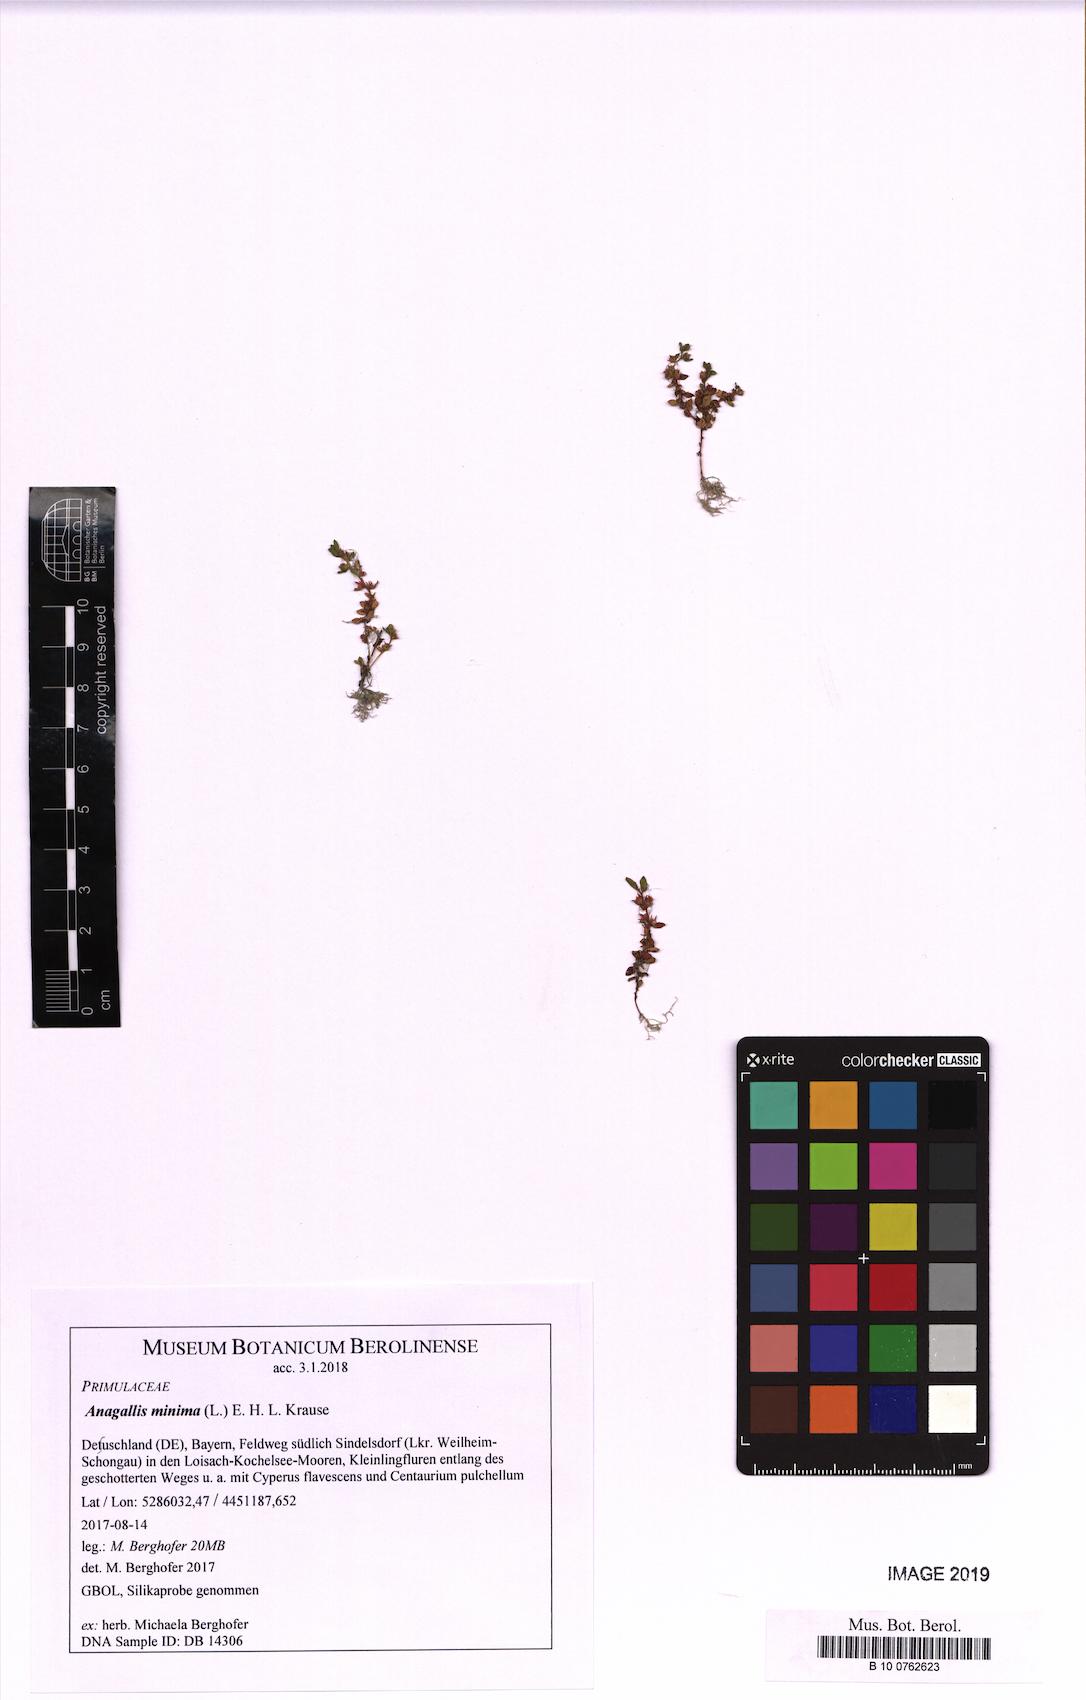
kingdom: Plantae
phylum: Tracheophyta
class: Magnoliopsida
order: Ericales
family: Primulaceae
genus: Lysimachia
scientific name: Lysimachia minima
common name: Chaffweed
